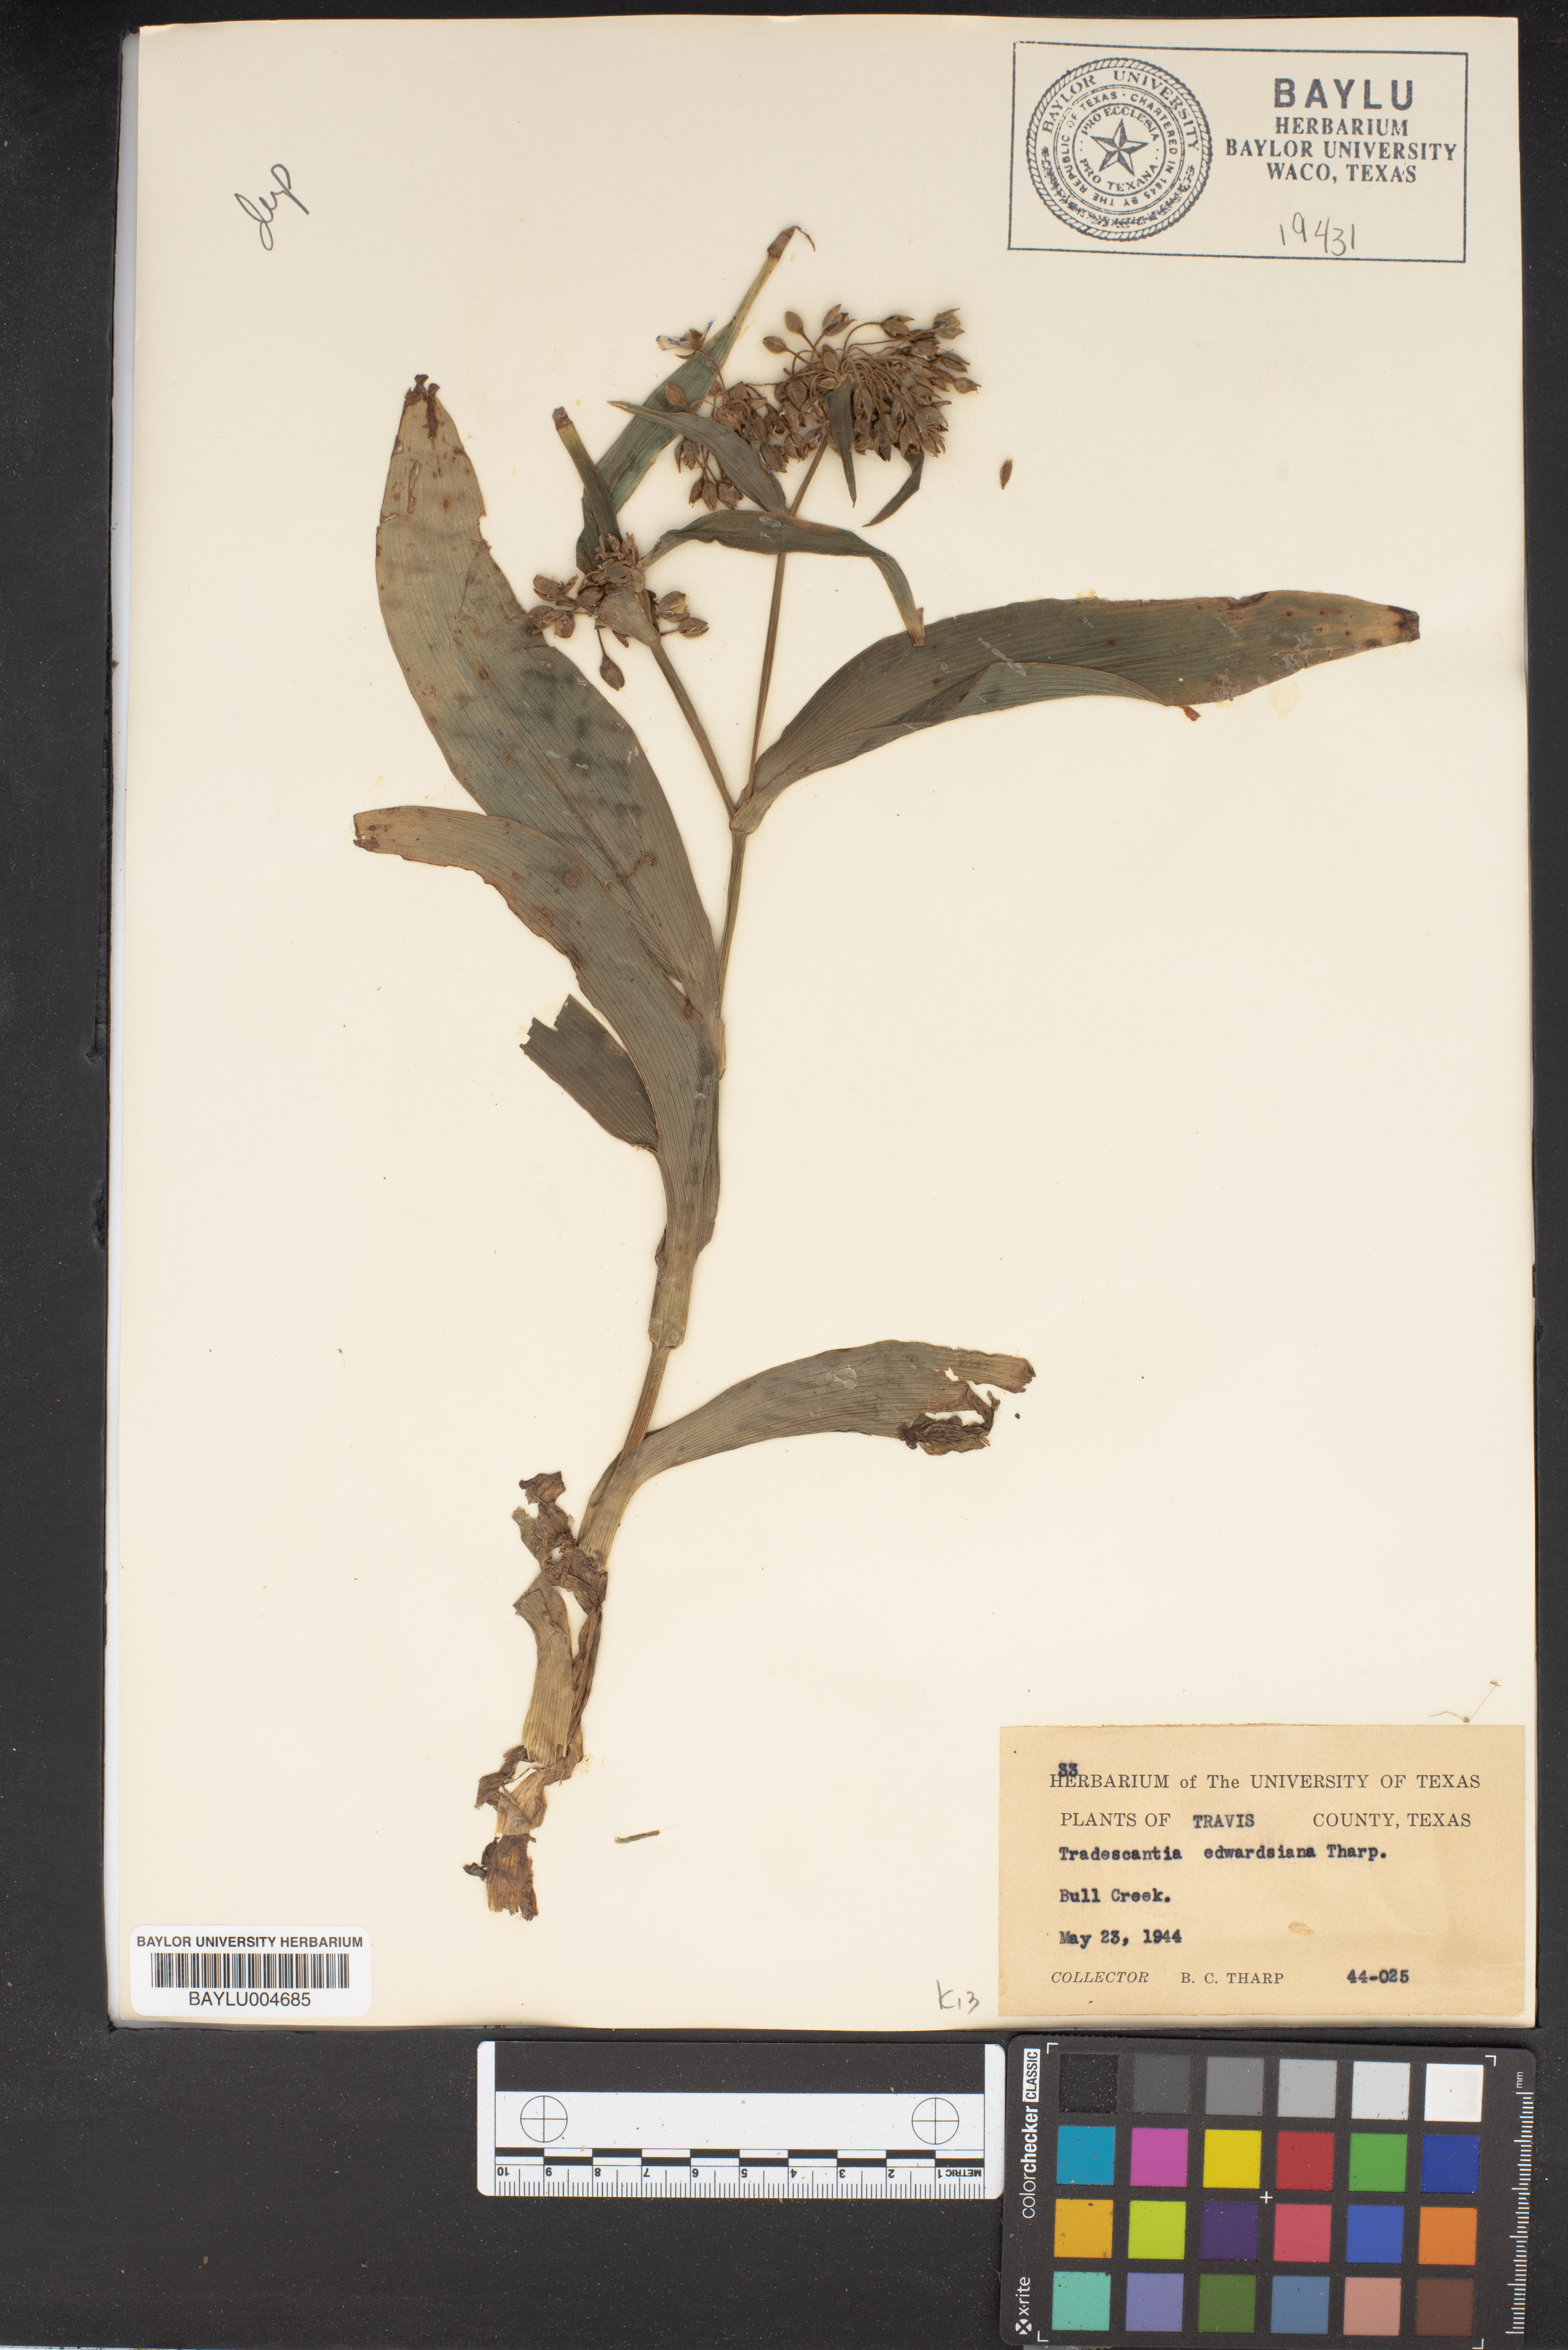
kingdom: Plantae
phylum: Tracheophyta
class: Liliopsida
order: Commelinales
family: Commelinaceae
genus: Tradescantia
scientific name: Tradescantia edwardsiana
